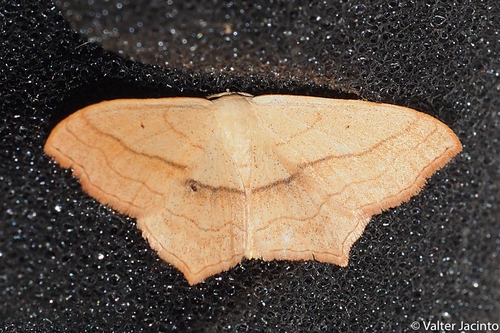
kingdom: Animalia
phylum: Arthropoda
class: Insecta
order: Lepidoptera
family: Geometridae
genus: Scopula
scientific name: Scopula imitaria
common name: Small blood-vein
